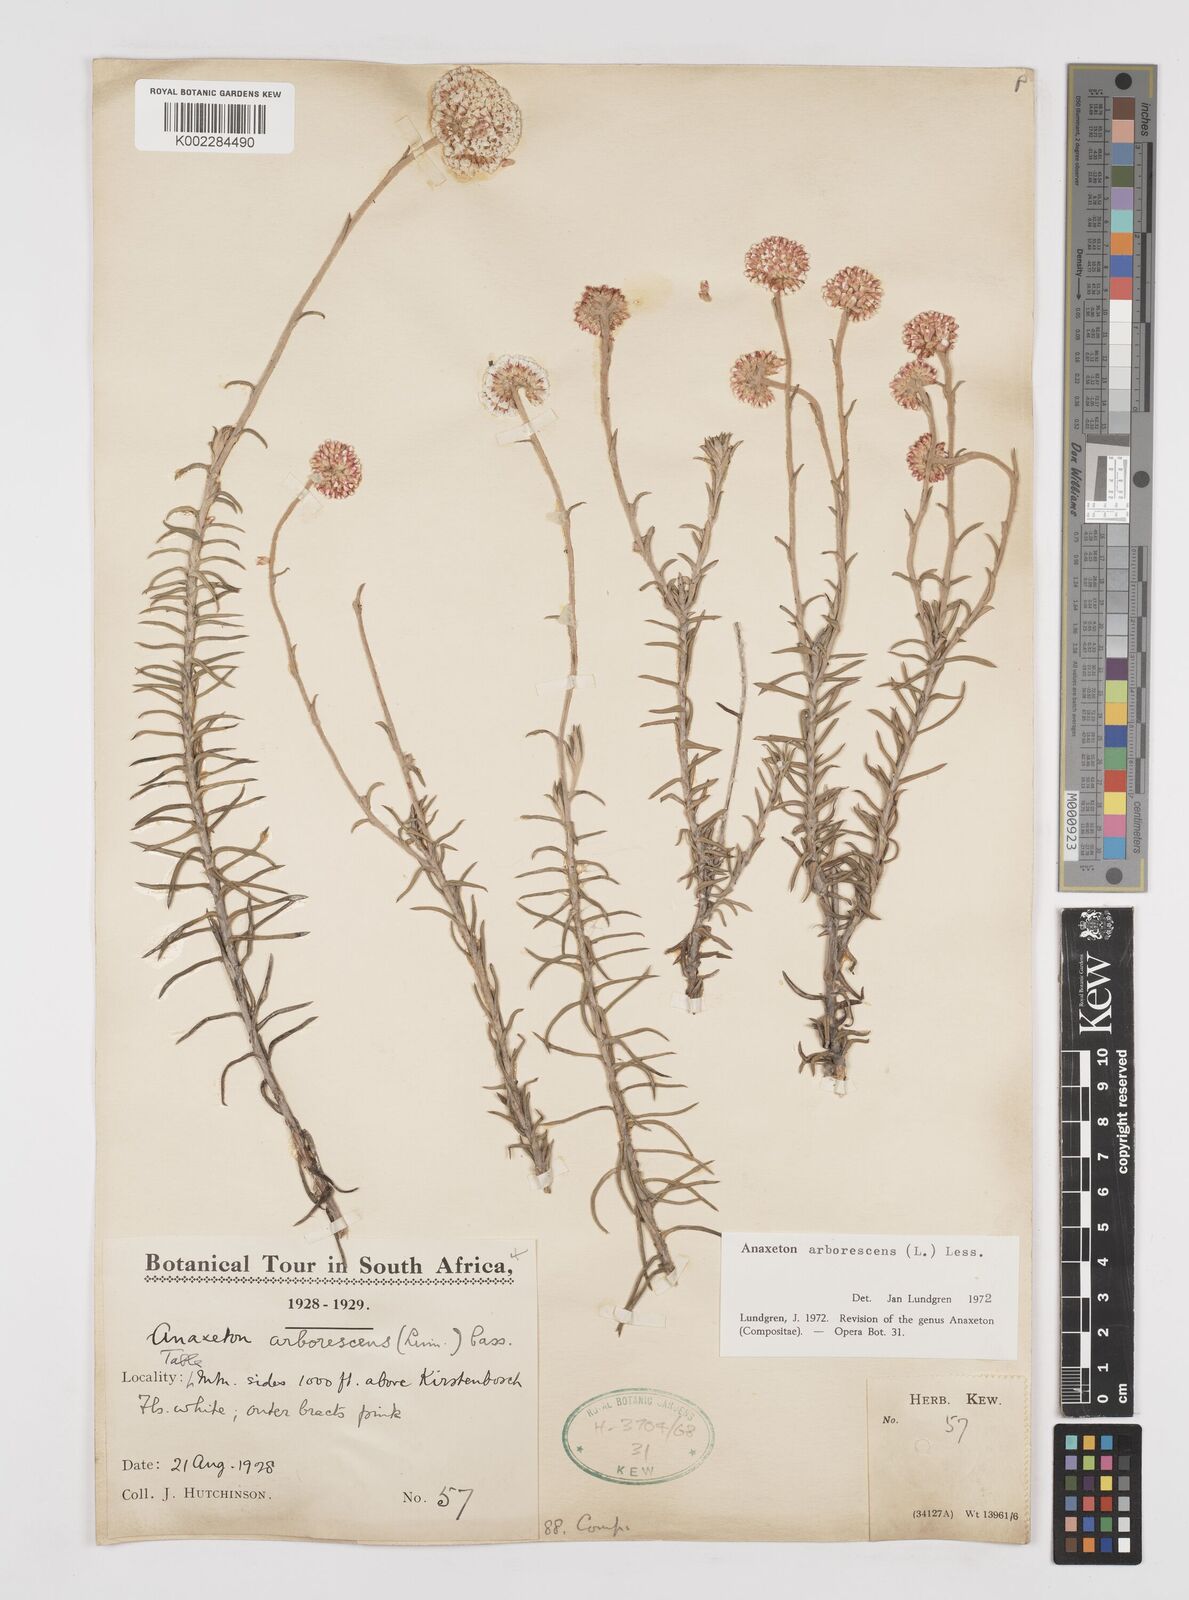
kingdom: Plantae
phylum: Tracheophyta
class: Magnoliopsida
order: Asterales
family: Asteraceae
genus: Anaxeton
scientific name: Anaxeton arborescens
